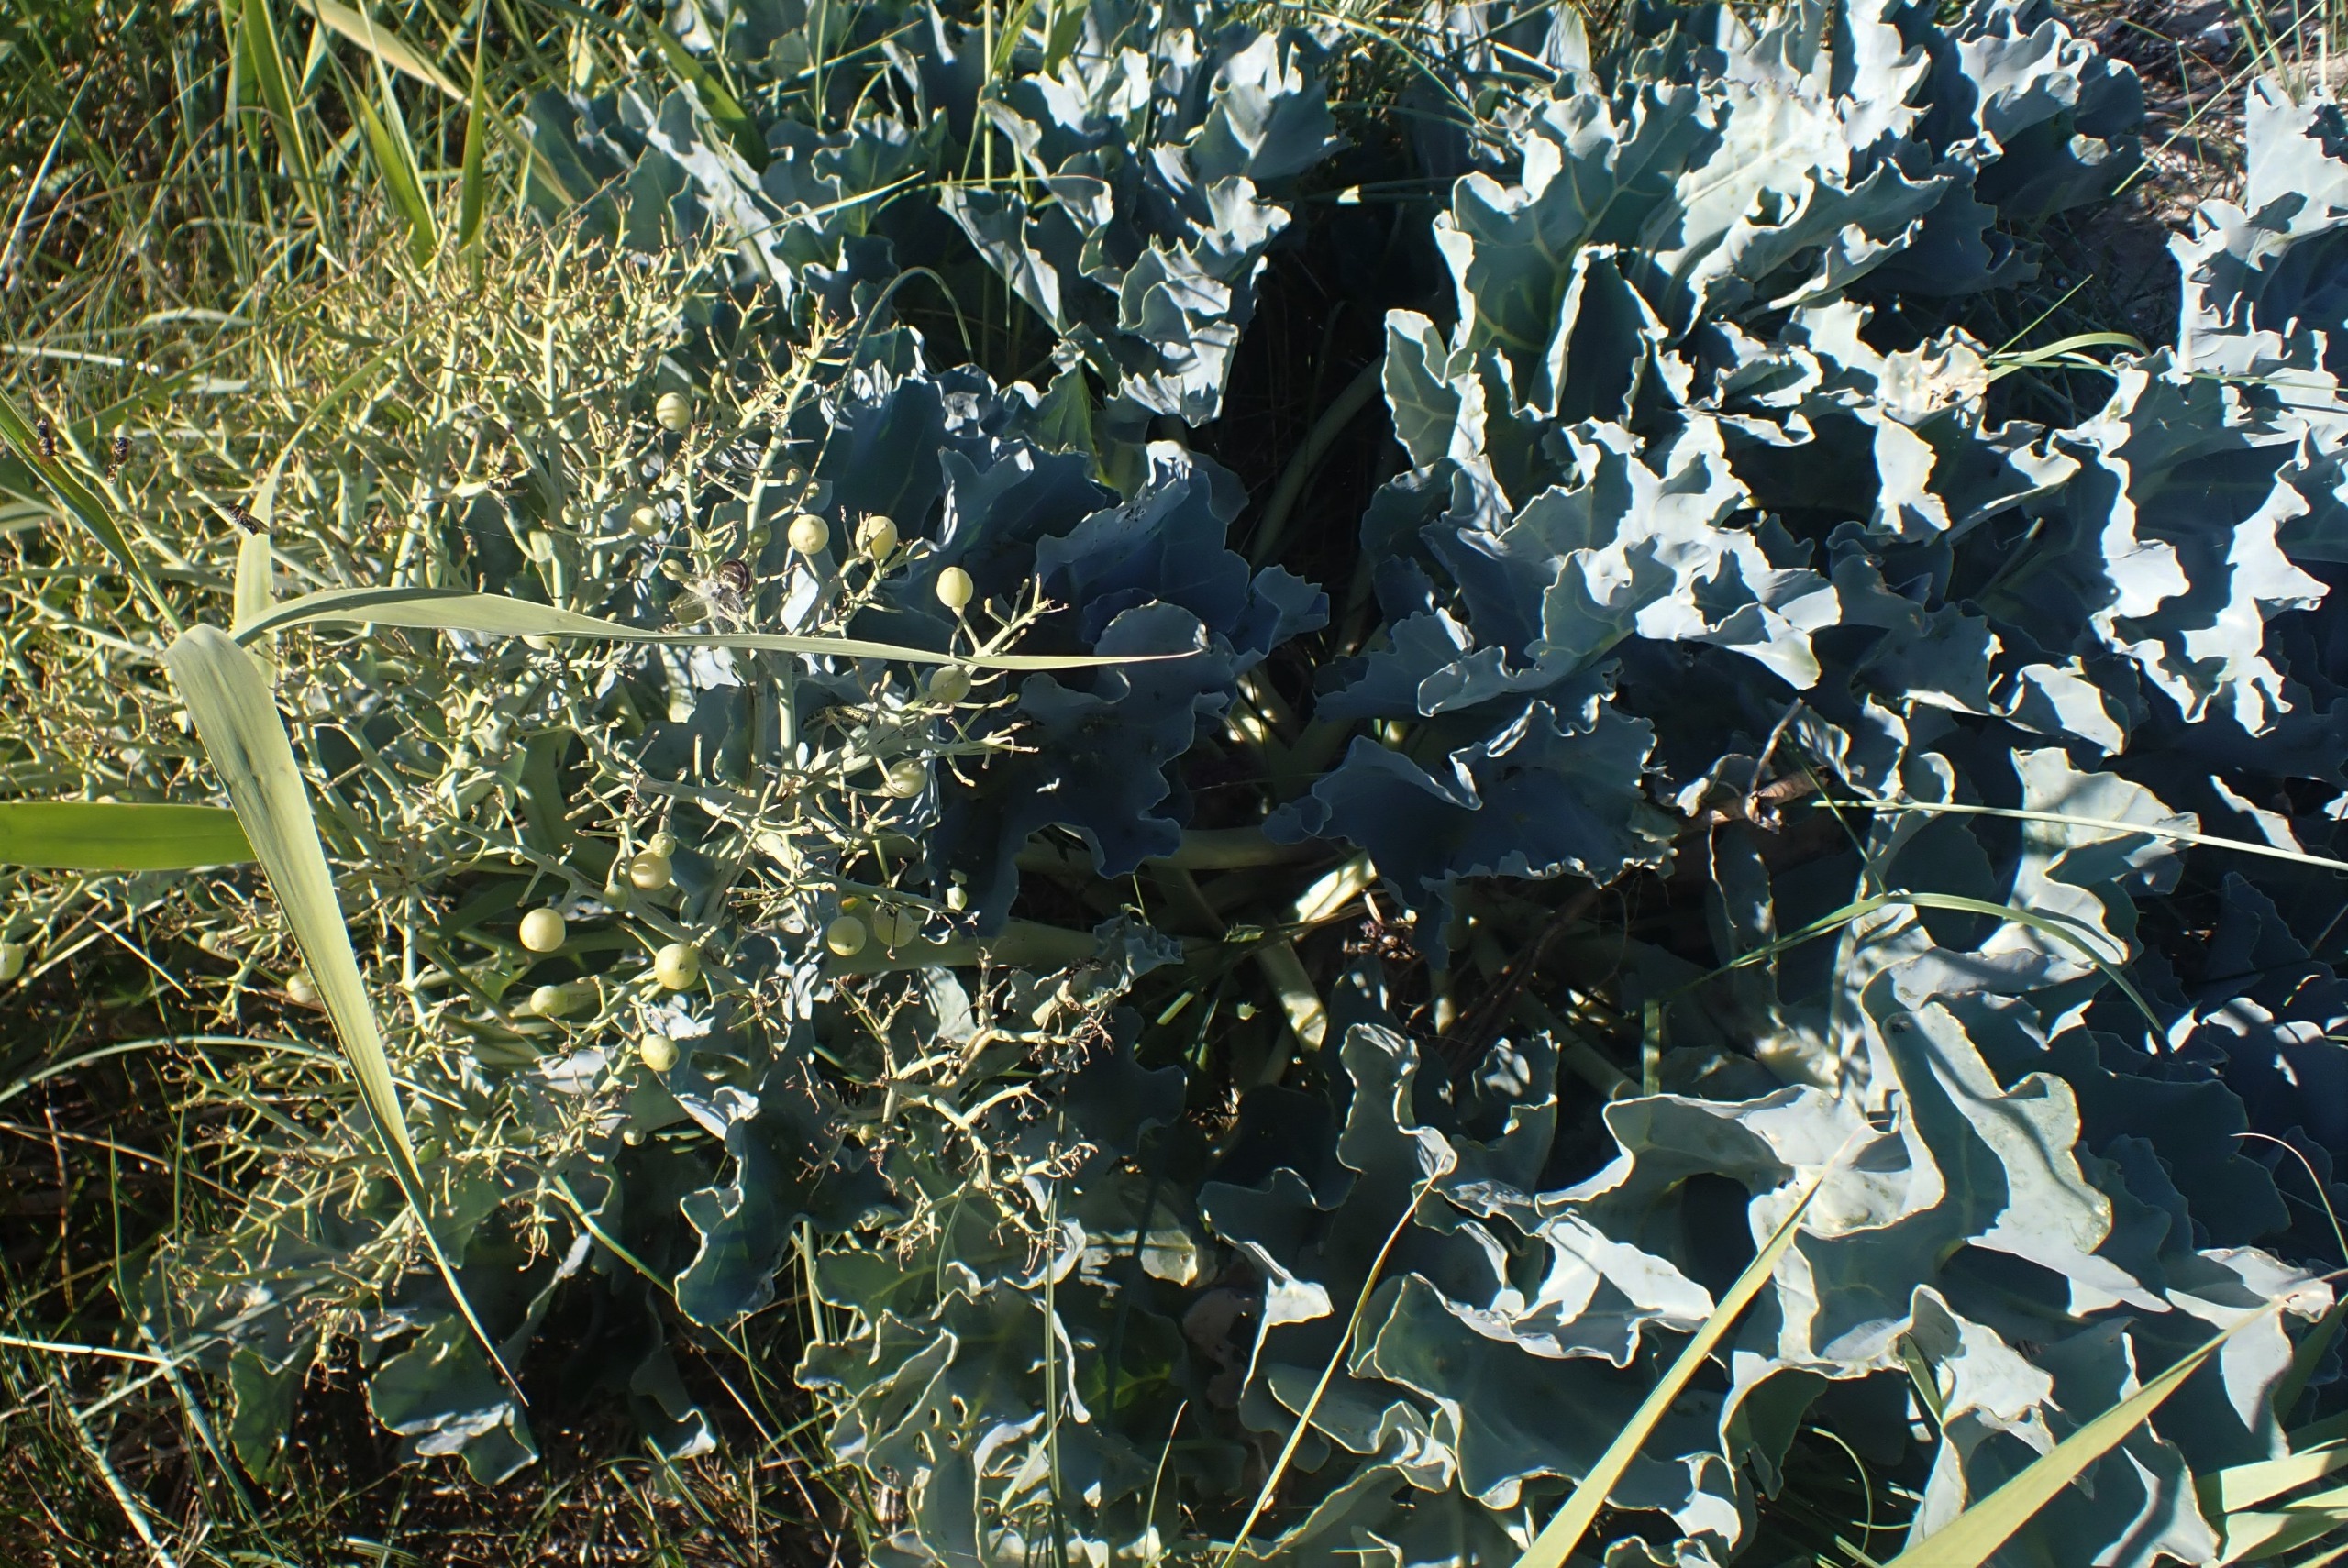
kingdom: Plantae
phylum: Tracheophyta
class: Magnoliopsida
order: Brassicales
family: Brassicaceae
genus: Crambe
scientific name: Crambe maritima
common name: Strandkål
